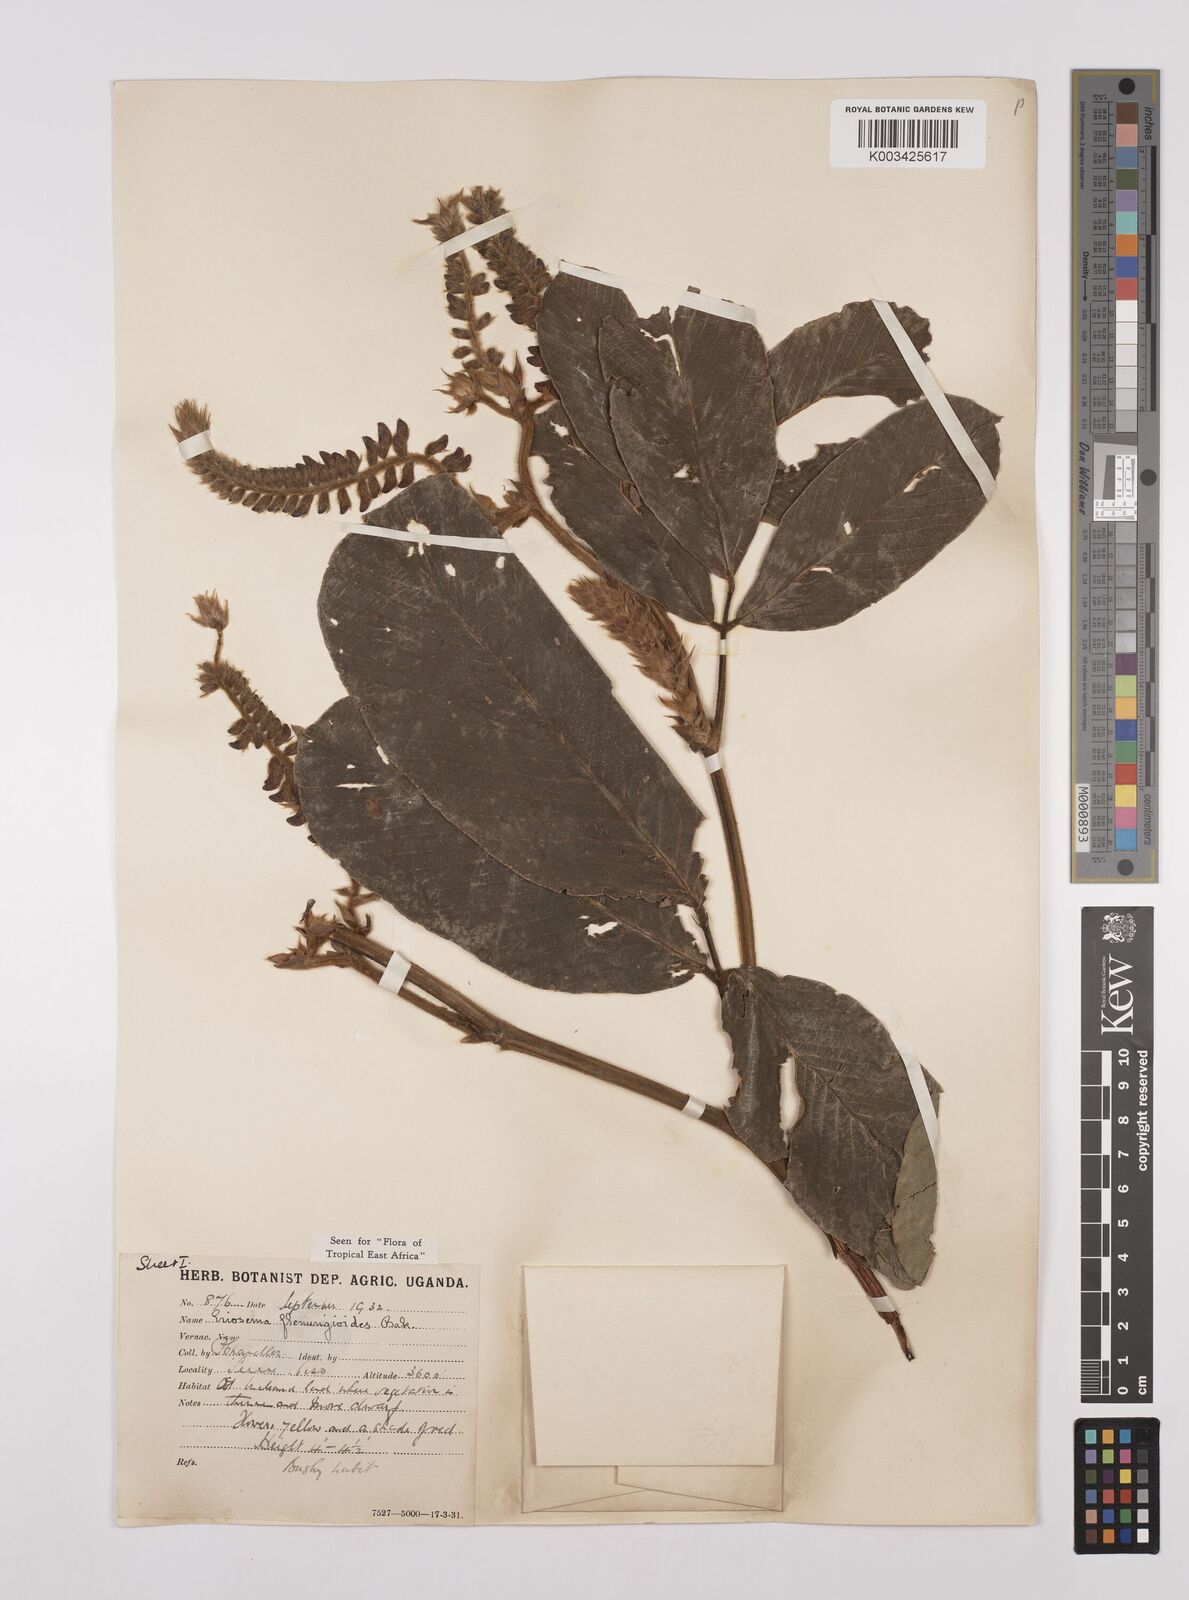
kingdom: Plantae
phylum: Tracheophyta
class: Magnoliopsida
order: Fabales
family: Fabaceae
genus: Eriosema
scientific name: Eriosema flemingioides
